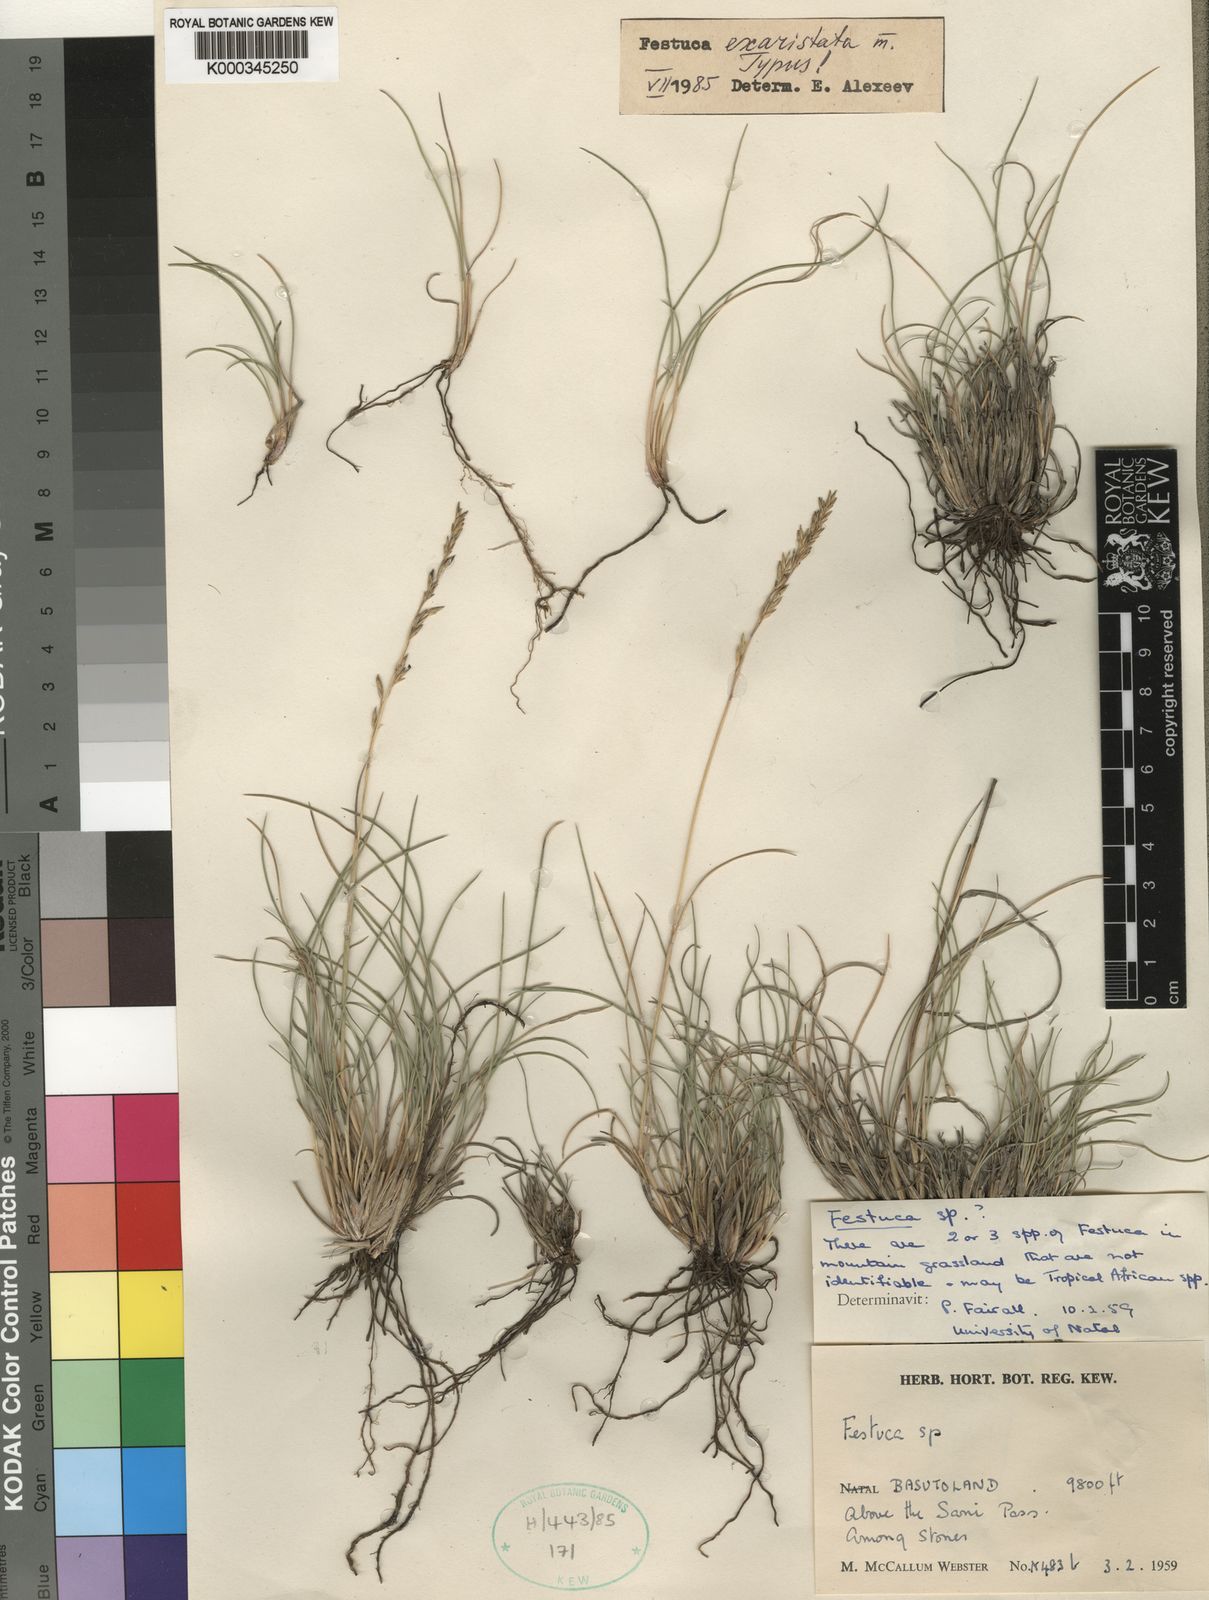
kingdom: Plantae
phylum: Tracheophyta
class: Liliopsida
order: Poales
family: Poaceae
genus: Festuca
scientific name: Festuca exaristata
